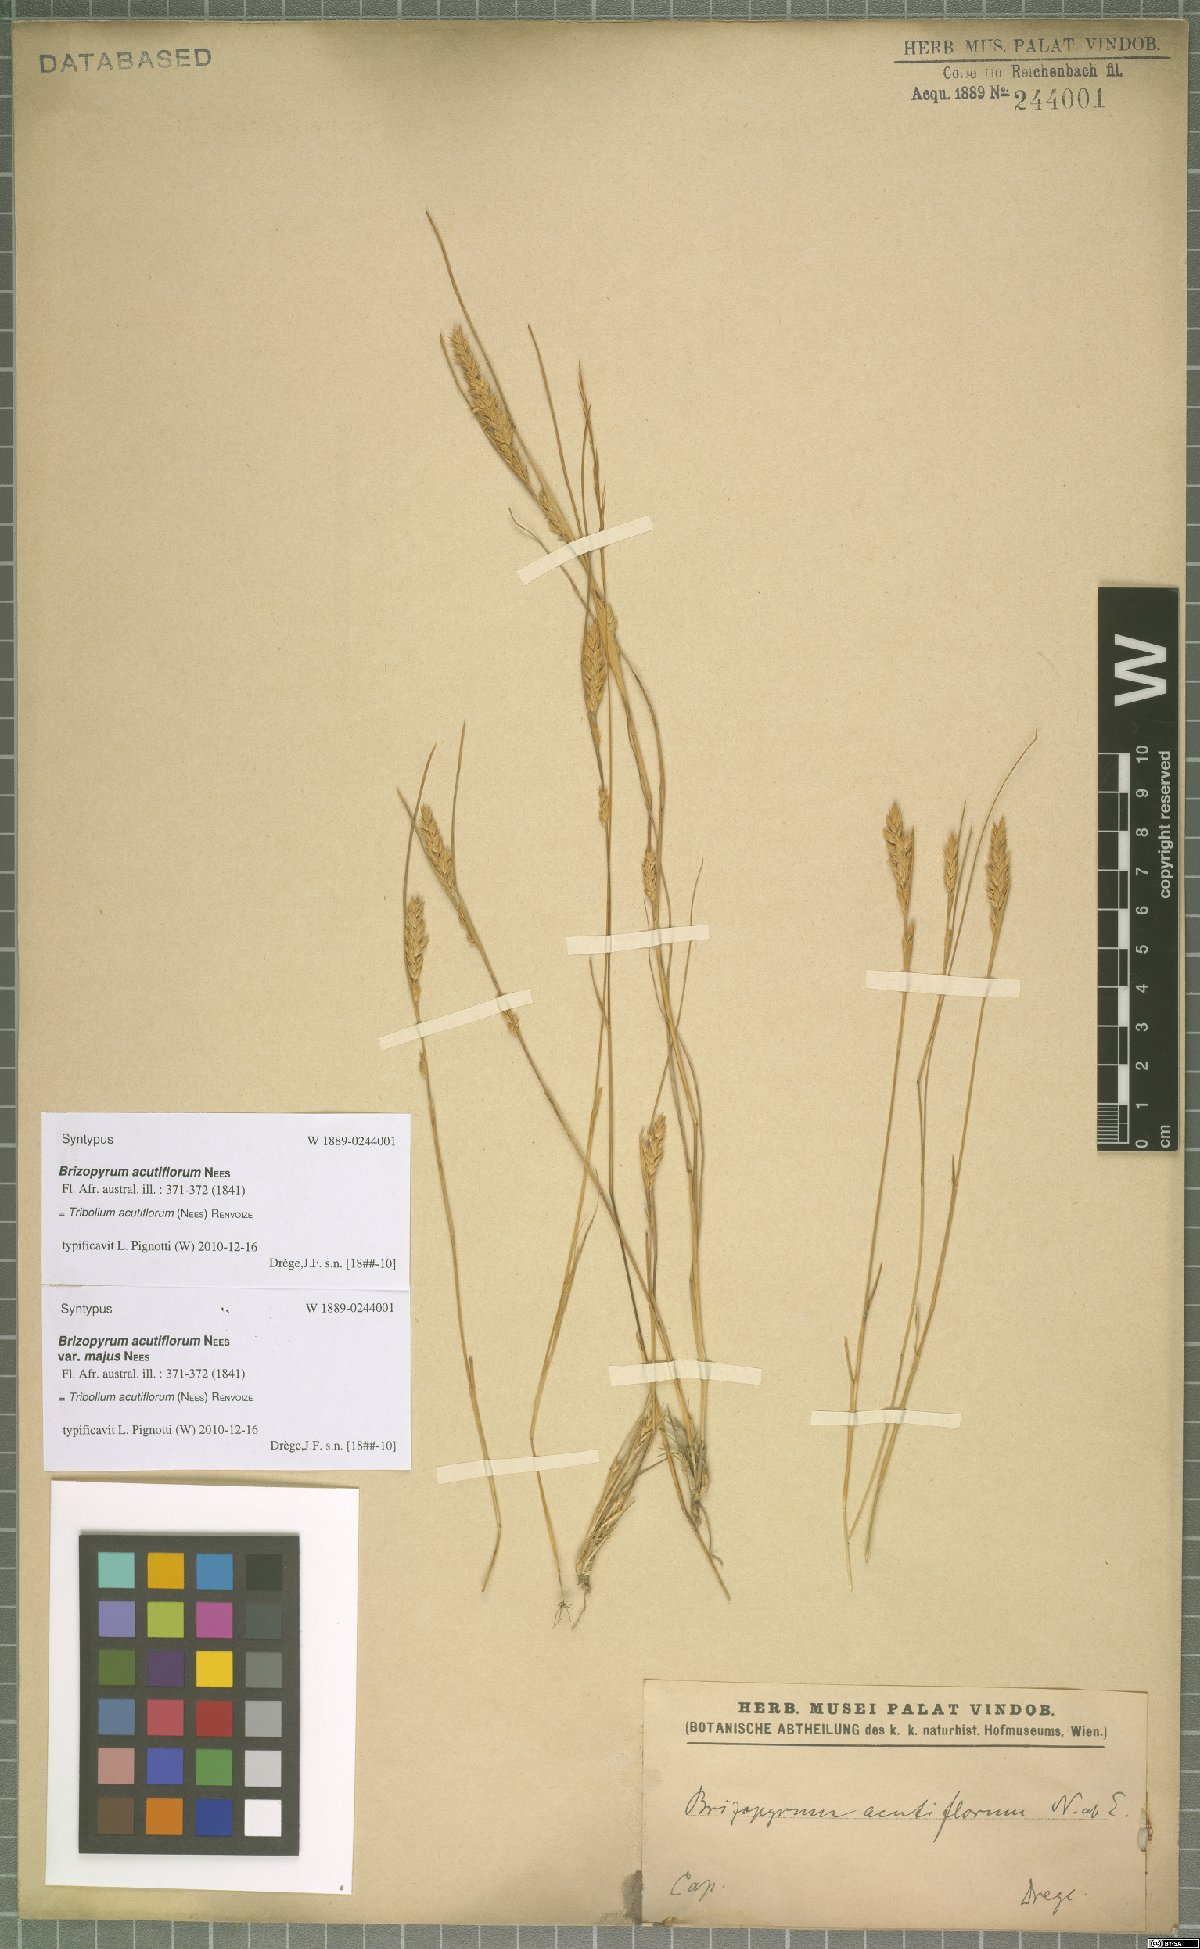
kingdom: Plantae
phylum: Tracheophyta
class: Liliopsida
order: Poales
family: Poaceae
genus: Tribolium
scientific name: Tribolium acutiflorum
